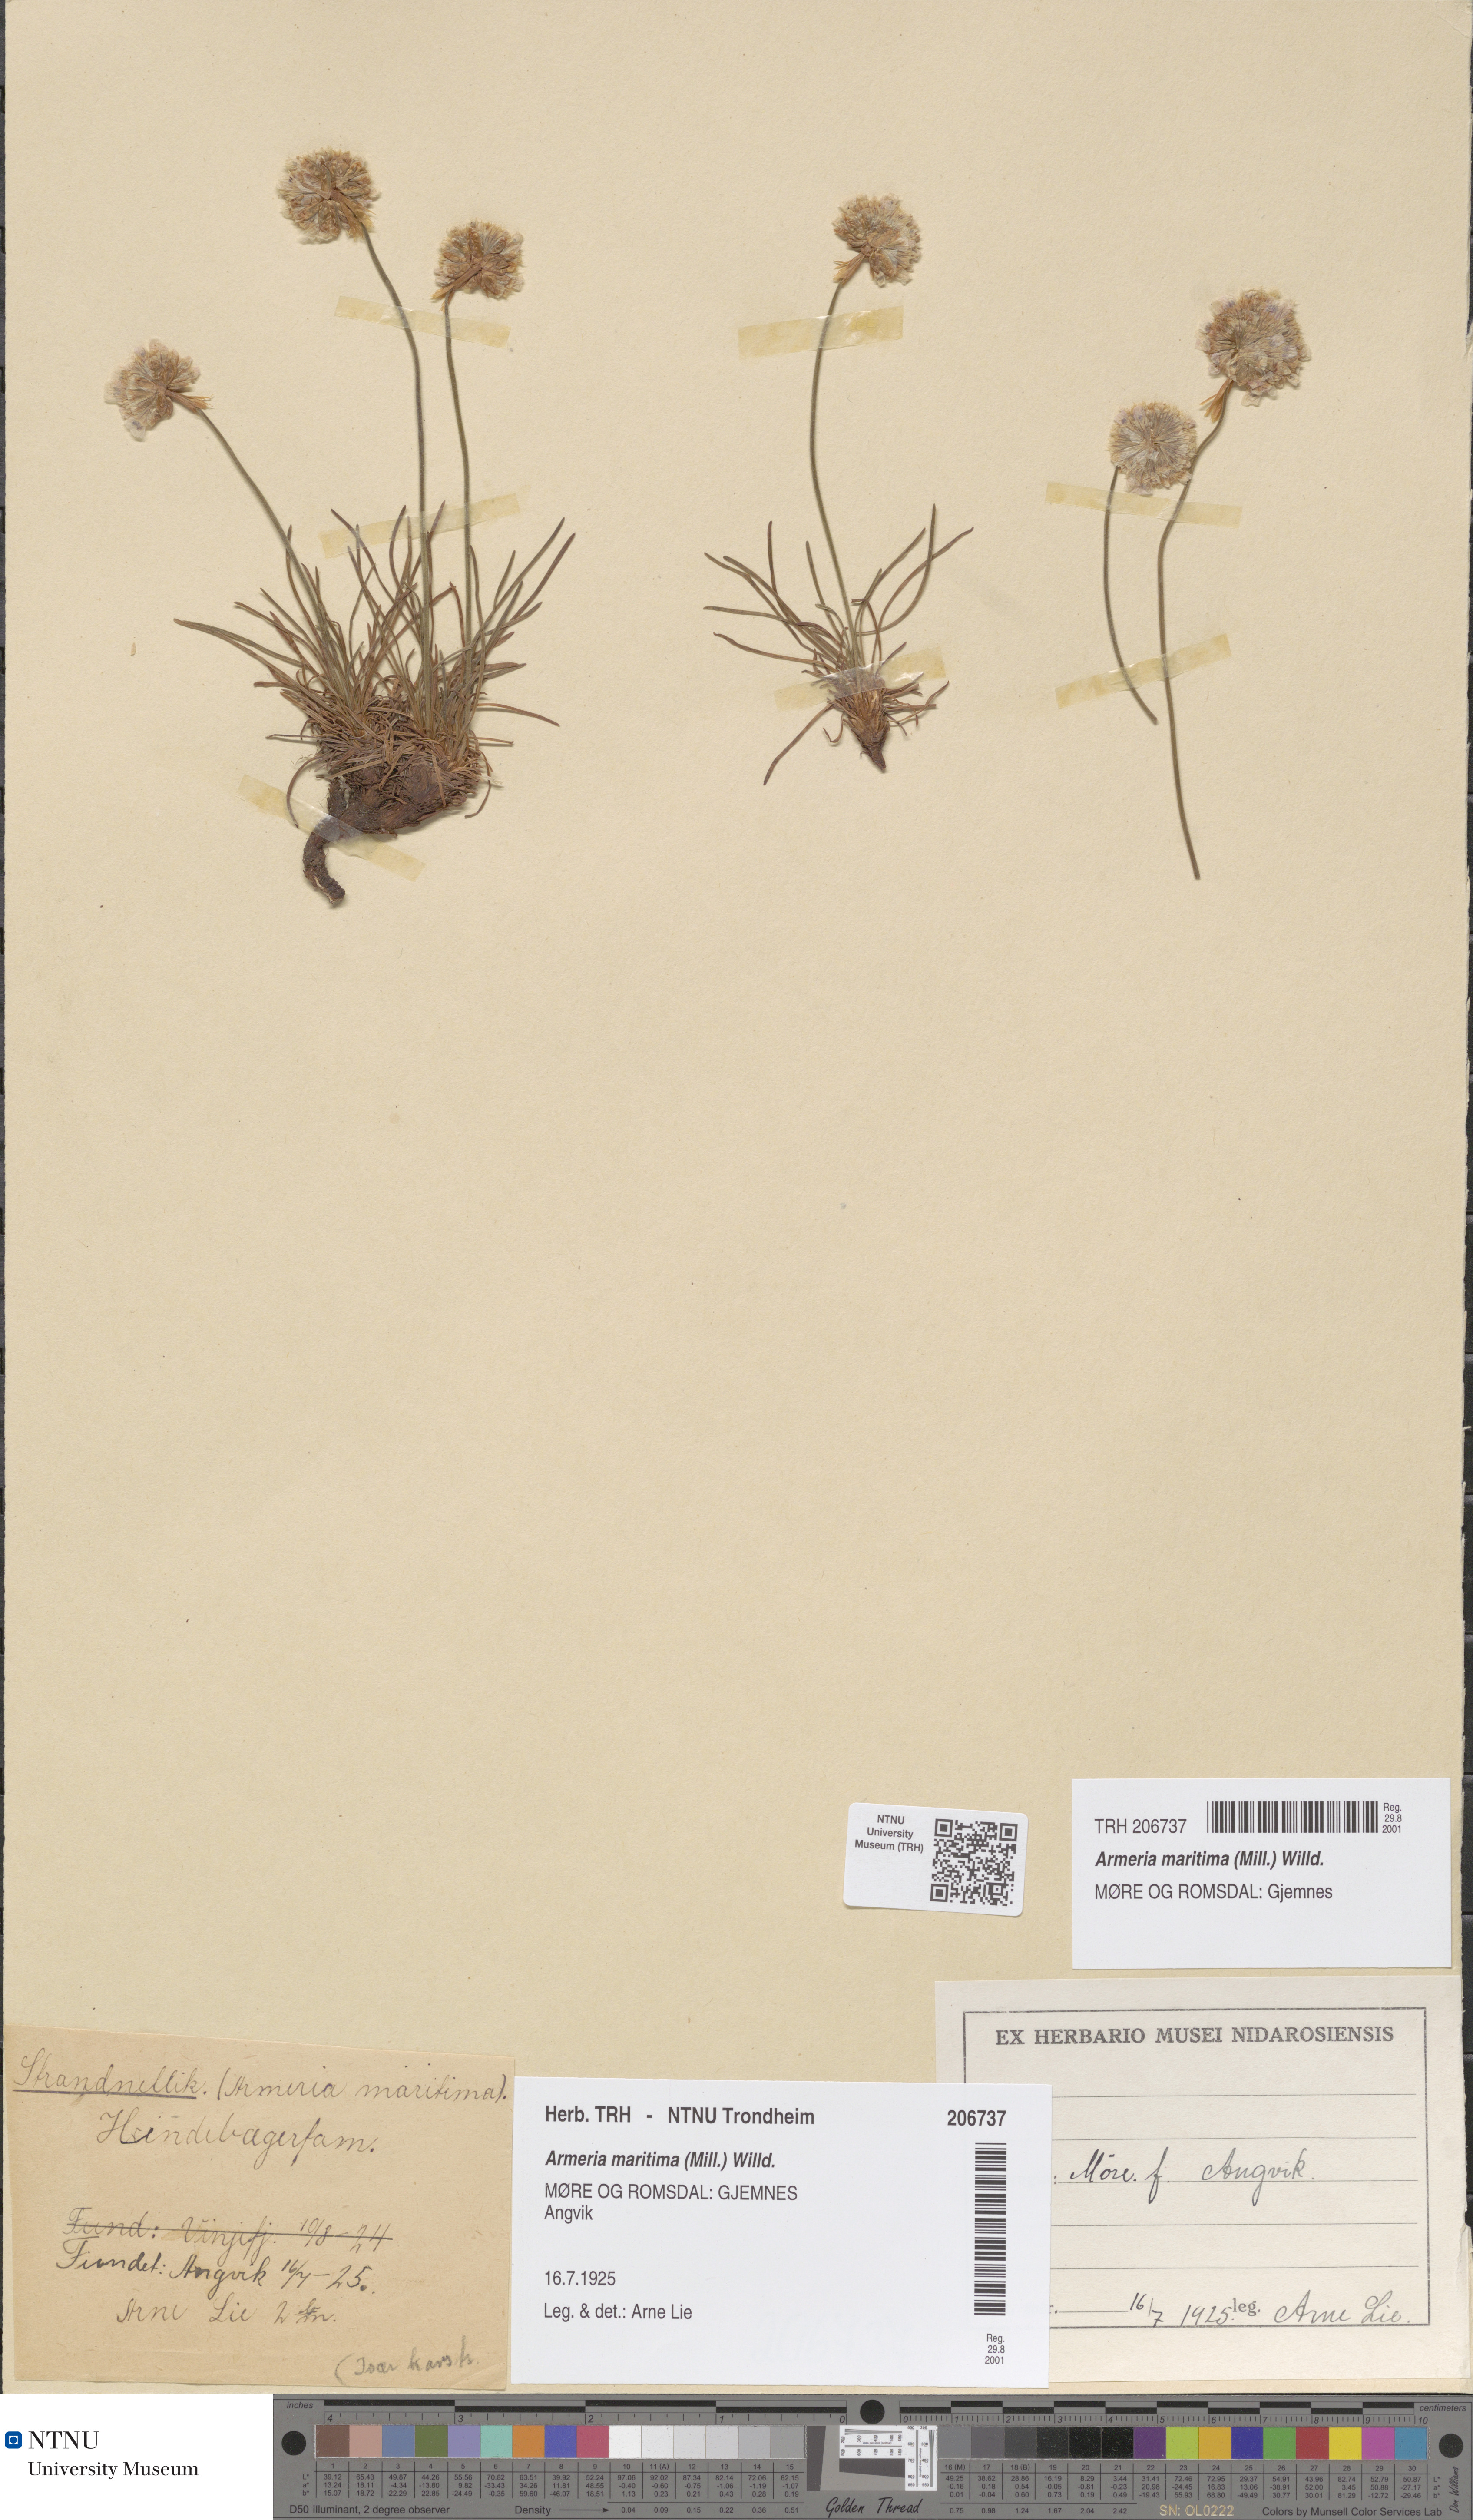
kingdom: Plantae
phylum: Tracheophyta
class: Magnoliopsida
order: Caryophyllales
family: Plumbaginaceae
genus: Armeria
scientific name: Armeria maritima
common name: Thrift
